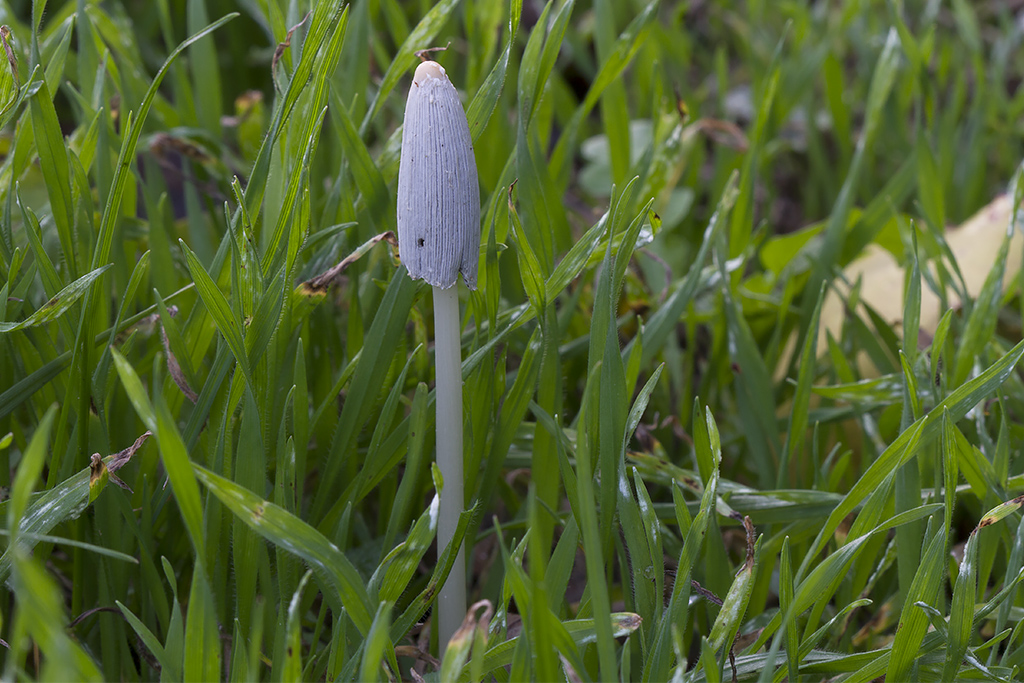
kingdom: Fungi
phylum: Basidiomycota
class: Agaricomycetes
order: Agaricales
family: Psathyrellaceae
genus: Coprinellus
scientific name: Coprinellus flocculosus
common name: fnugget blækhat
